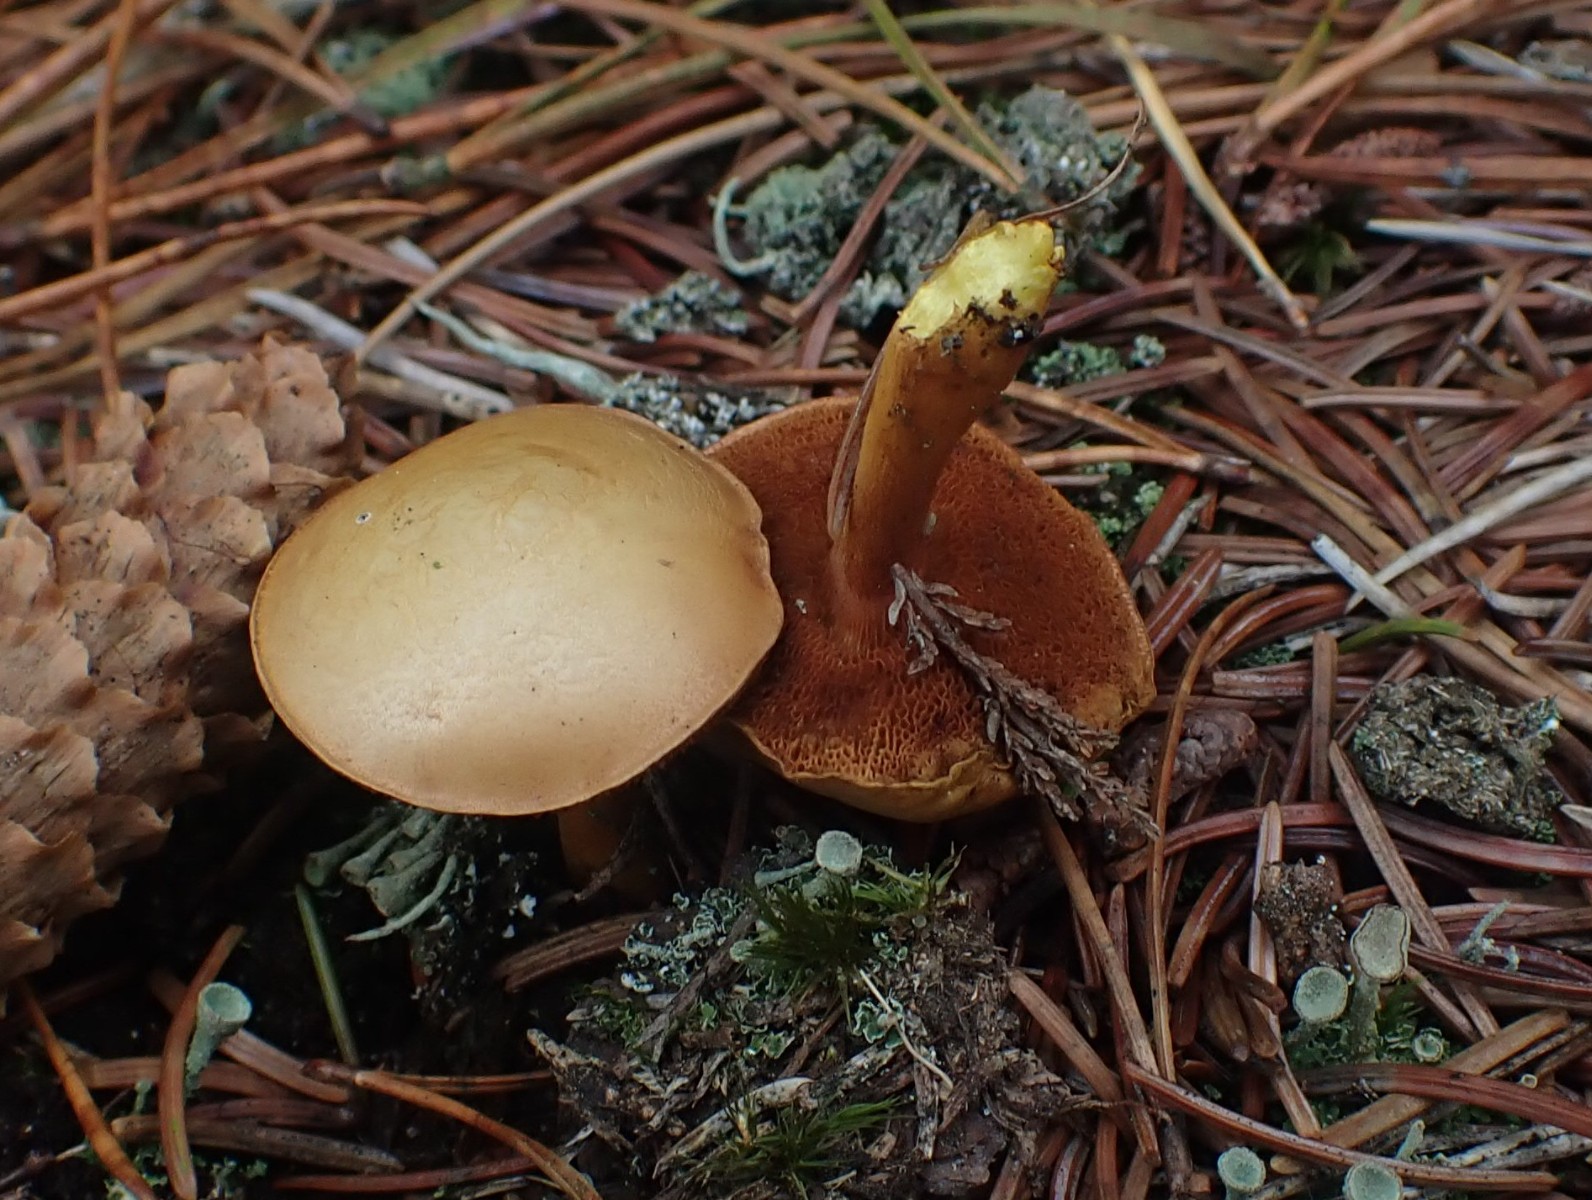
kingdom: Fungi
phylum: Basidiomycota
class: Agaricomycetes
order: Boletales
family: Boletaceae
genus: Chalciporus
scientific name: Chalciporus piperatus
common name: peberrørhat
